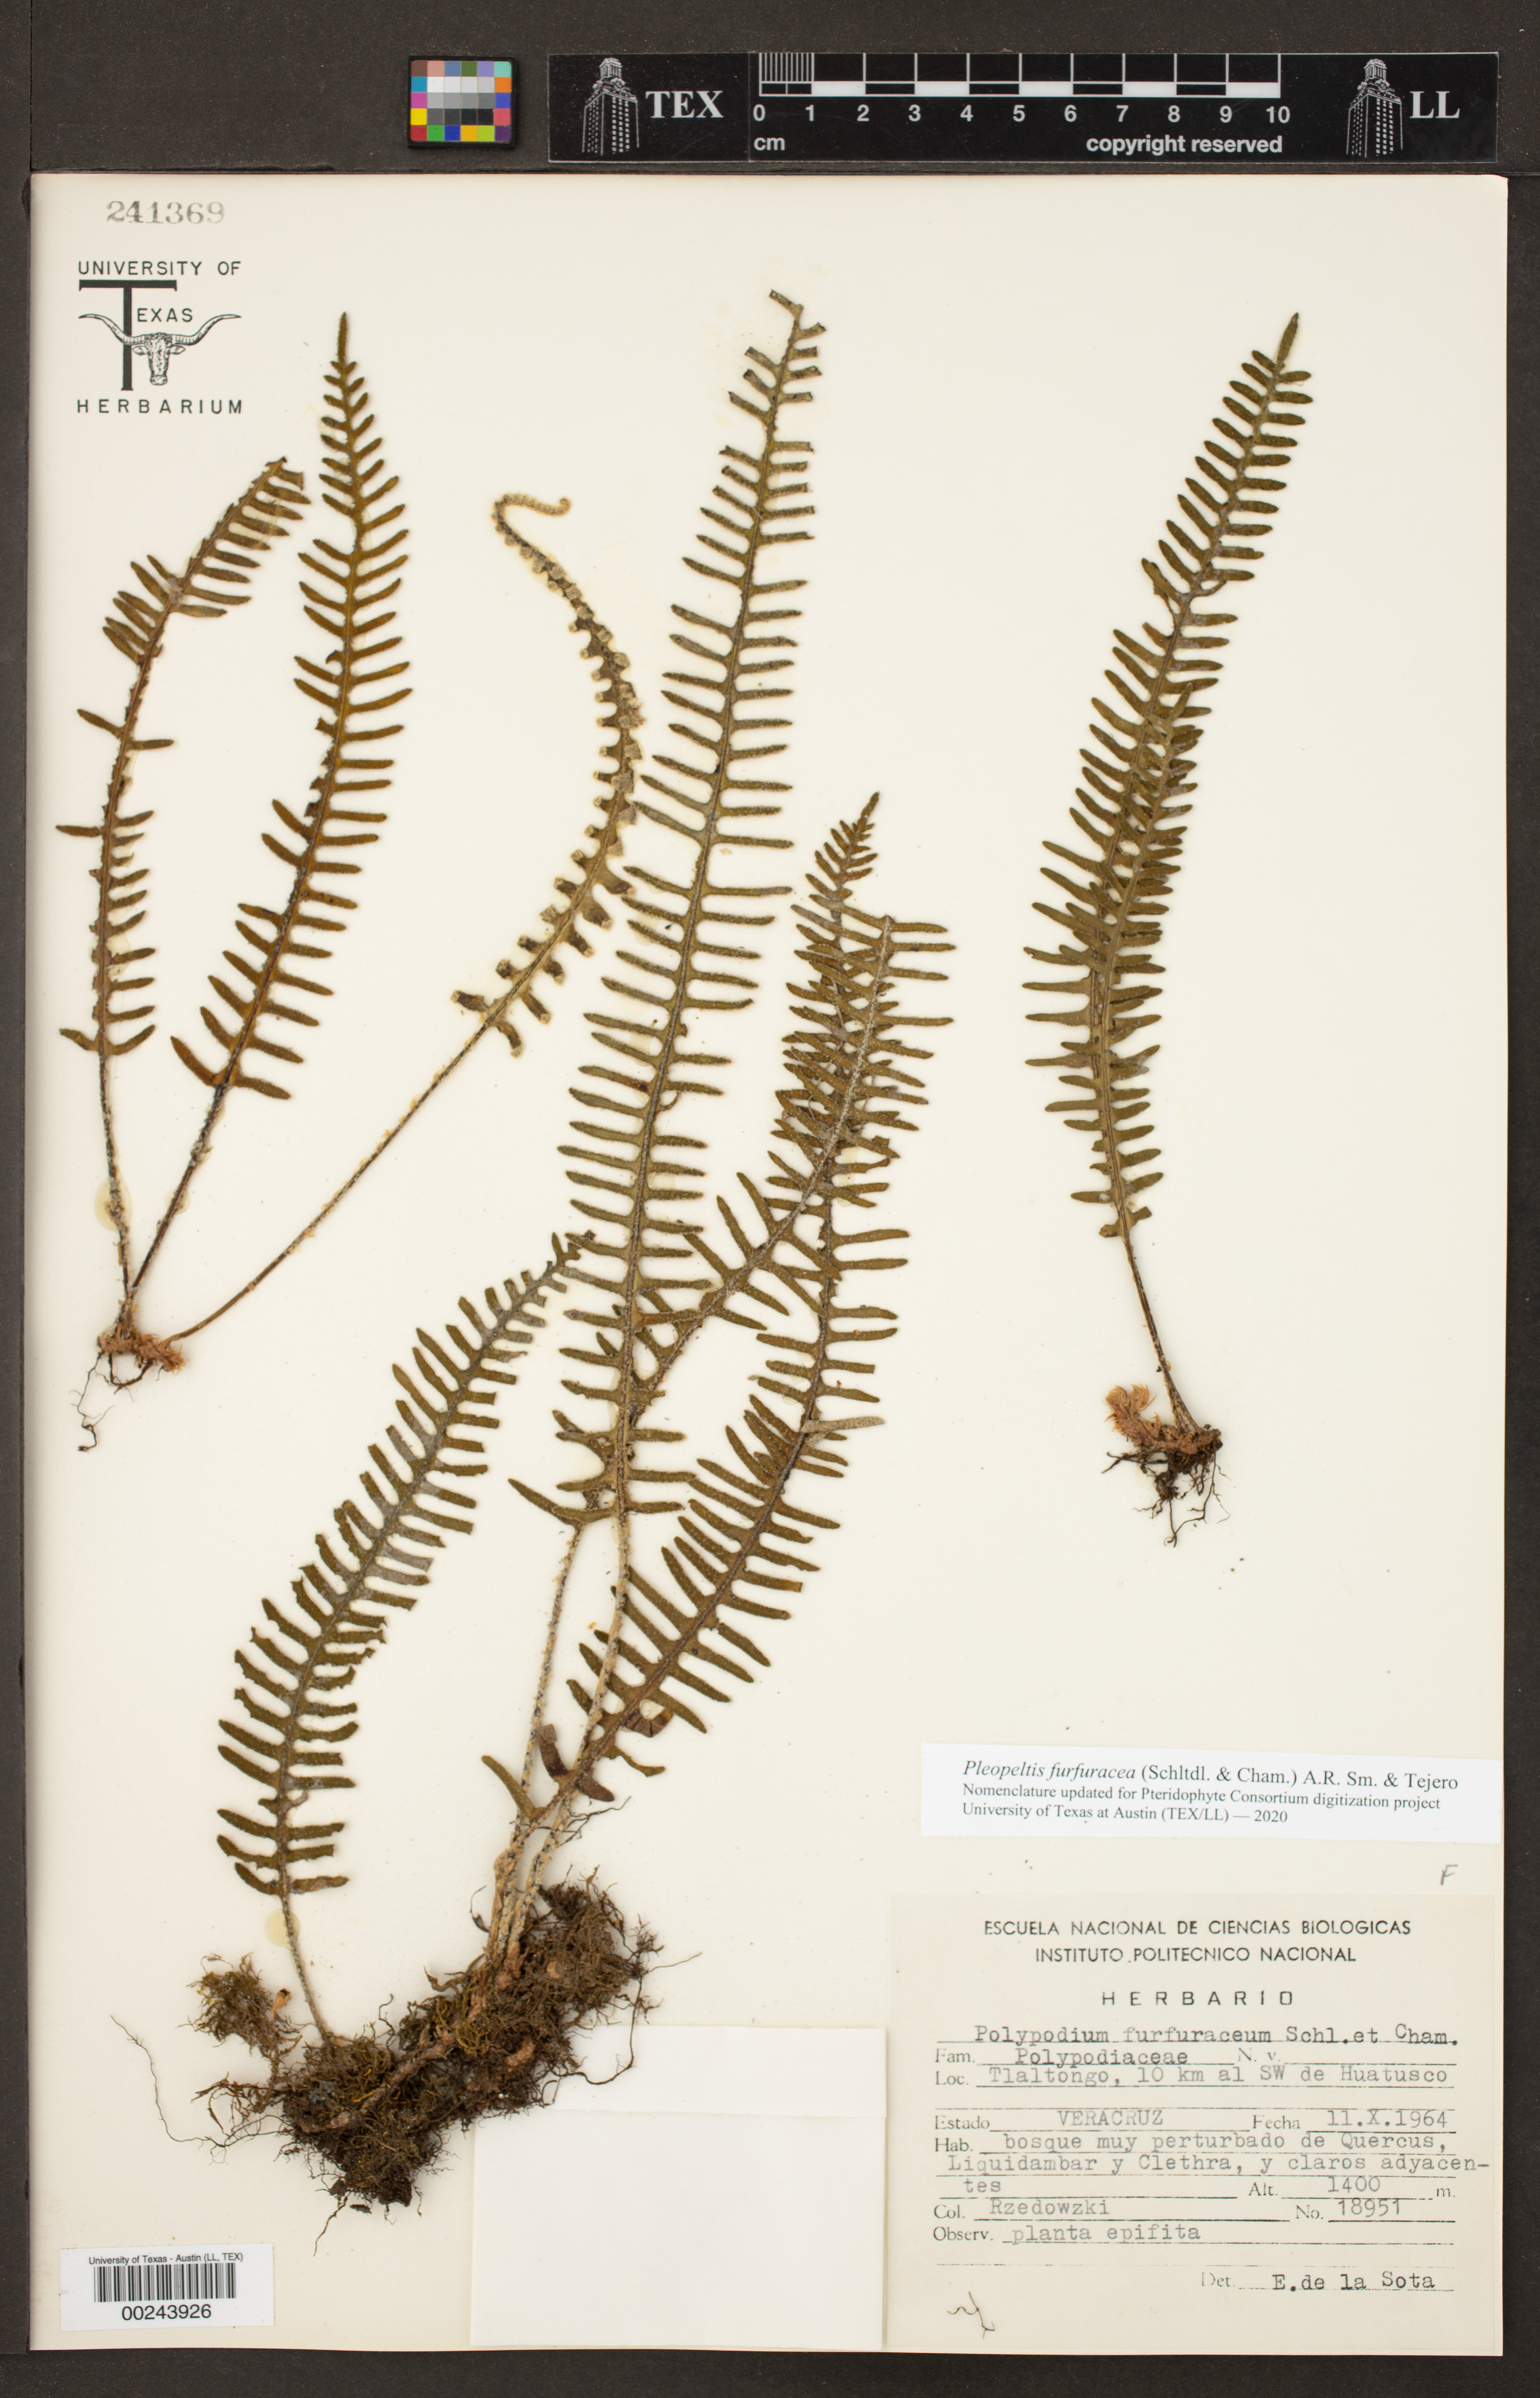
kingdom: Plantae
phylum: Tracheophyta
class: Polypodiopsida
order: Polypodiales
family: Polypodiaceae
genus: Pleopeltis
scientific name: Pleopeltis furfuracea
